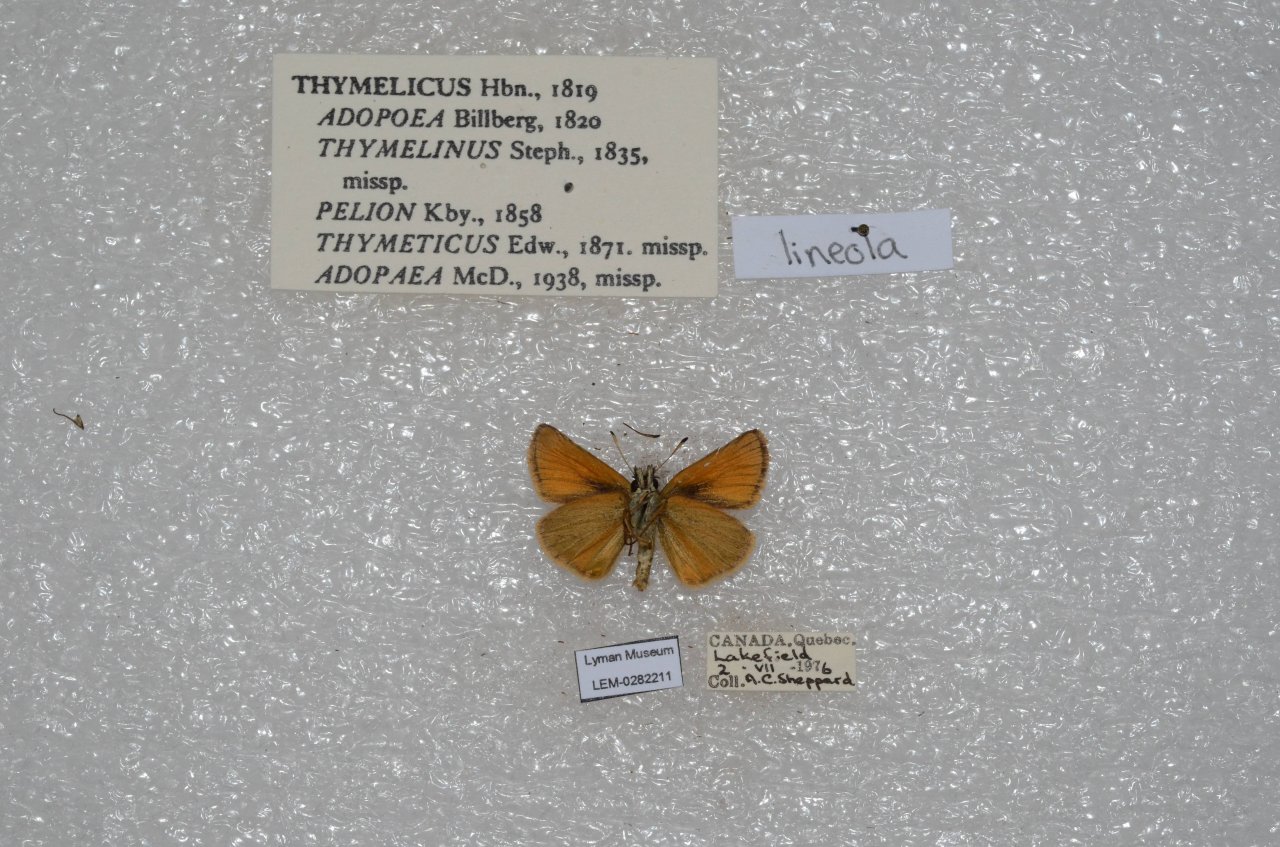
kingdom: Animalia
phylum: Arthropoda
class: Insecta
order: Lepidoptera
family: Hesperiidae
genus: Thymelicus
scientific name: Thymelicus lineola
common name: European Skipper
